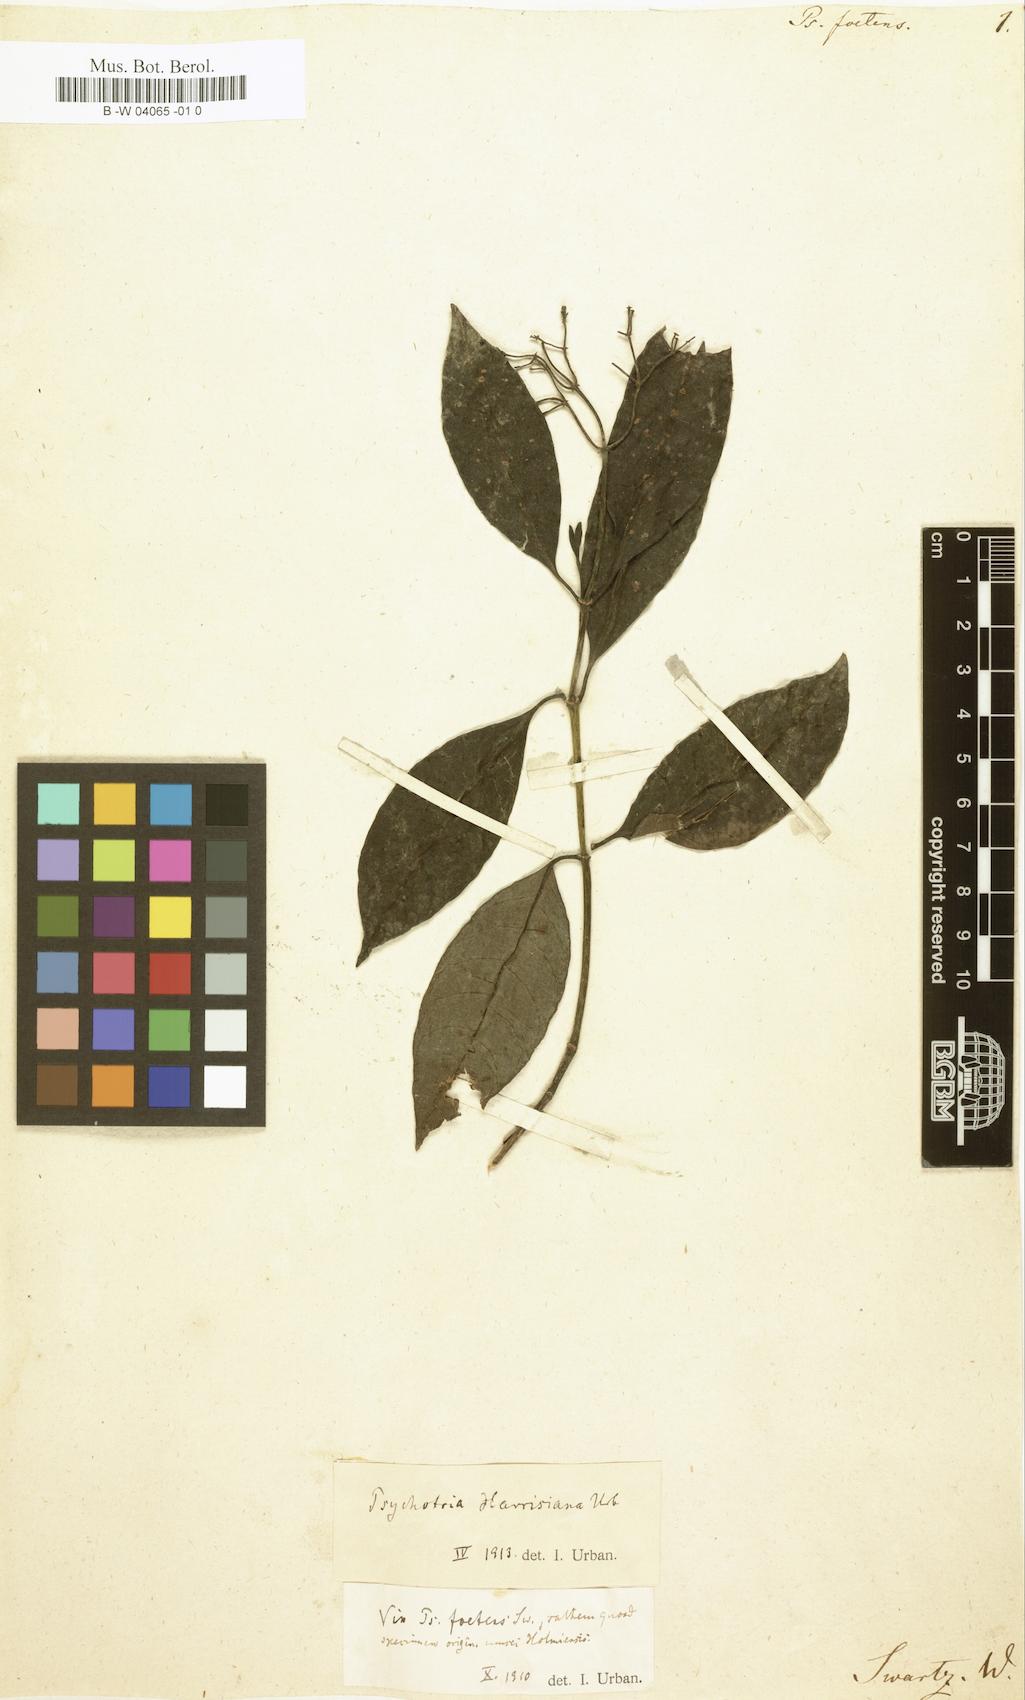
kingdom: Plantae
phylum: Tracheophyta
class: Magnoliopsida
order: Gentianales
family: Rubiaceae
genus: Psychotria
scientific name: Psychotria foetens
